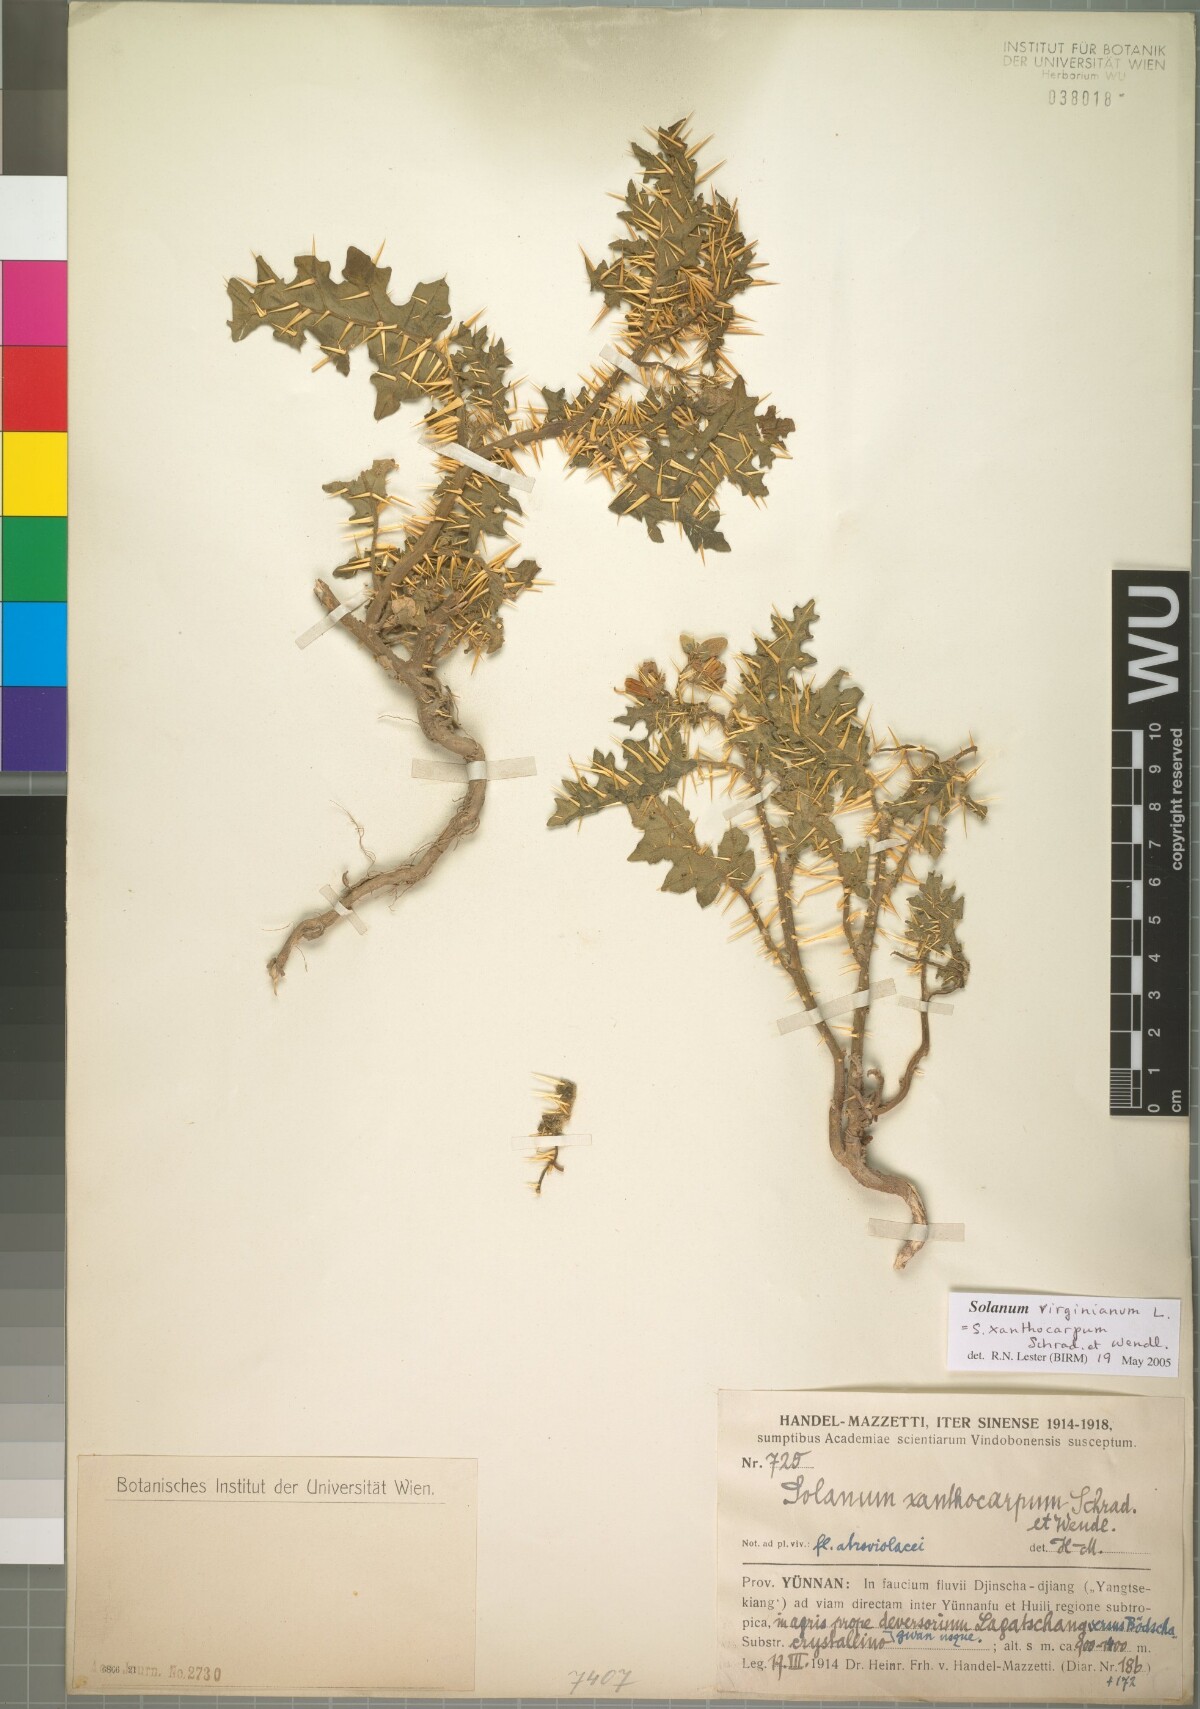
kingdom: Plantae
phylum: Tracheophyta
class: Magnoliopsida
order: Solanales
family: Solanaceae
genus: Solanum
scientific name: Solanum virginianum
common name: Surattense nightshade
